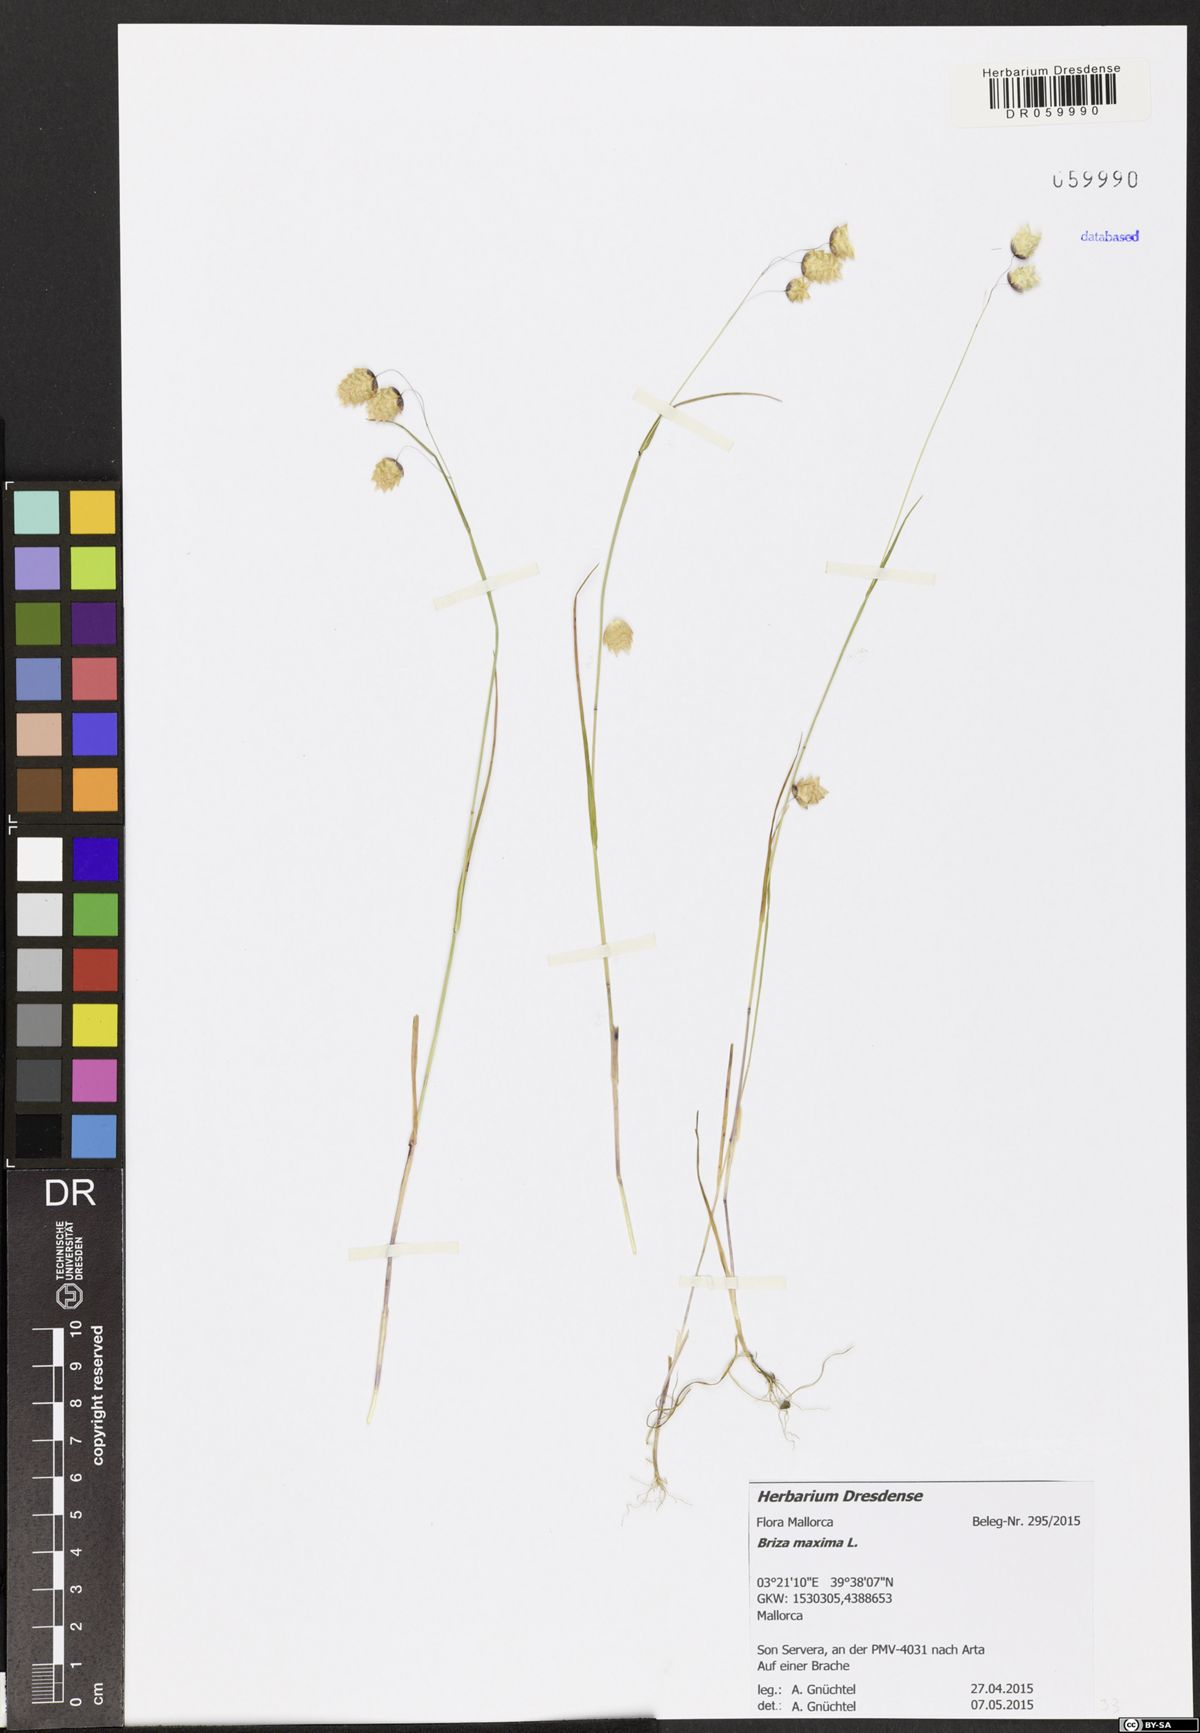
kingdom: Plantae
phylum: Tracheophyta
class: Liliopsida
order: Poales
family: Poaceae
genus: Briza
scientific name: Briza maxima
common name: Big quakinggrass
